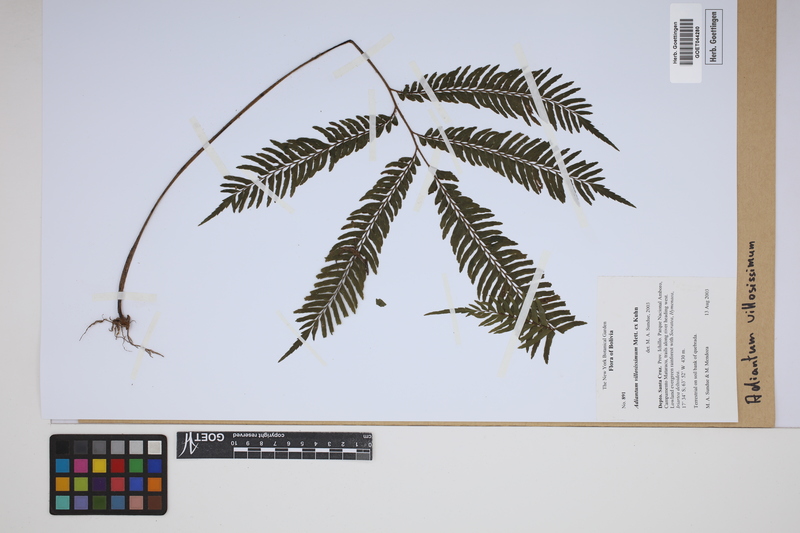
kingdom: Plantae
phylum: Tracheophyta
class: Polypodiopsida
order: Polypodiales
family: Pteridaceae
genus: Adiantum
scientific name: Adiantum villosissimum
